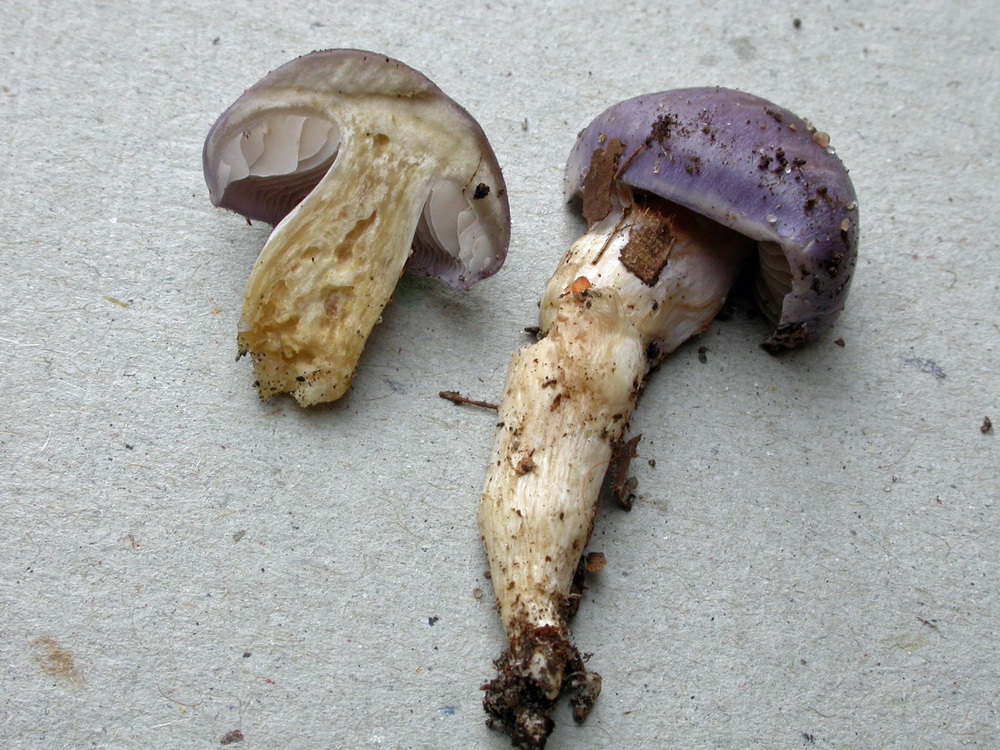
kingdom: Fungi
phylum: Basidiomycota
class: Agaricomycetes
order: Agaricales
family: Cortinariaceae
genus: Thaxterogaster
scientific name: Thaxterogaster croceocoeruleus
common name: blågullig slørhat
